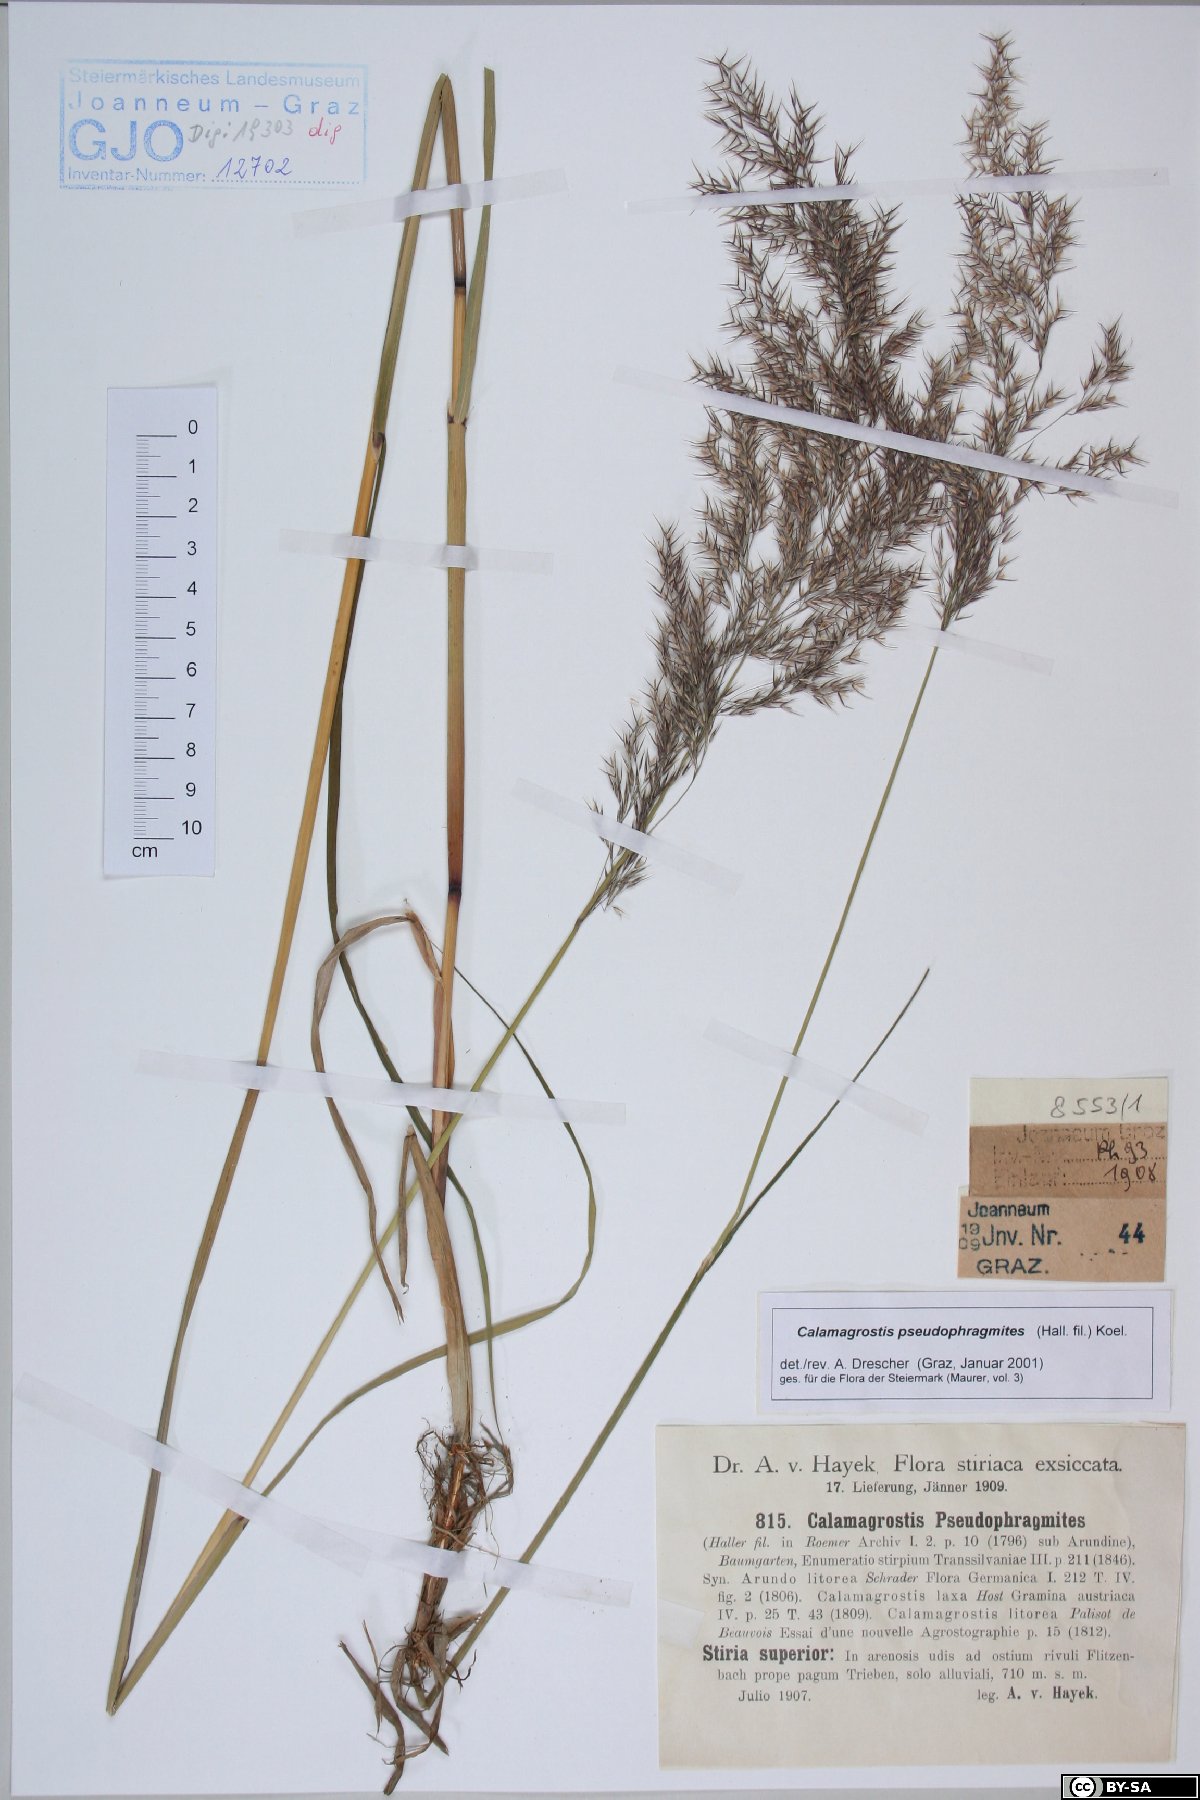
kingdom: Plantae
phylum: Tracheophyta
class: Liliopsida
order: Poales
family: Poaceae
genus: Calamagrostis
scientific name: Calamagrostis pseudophragmites
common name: Coastal small-reed
